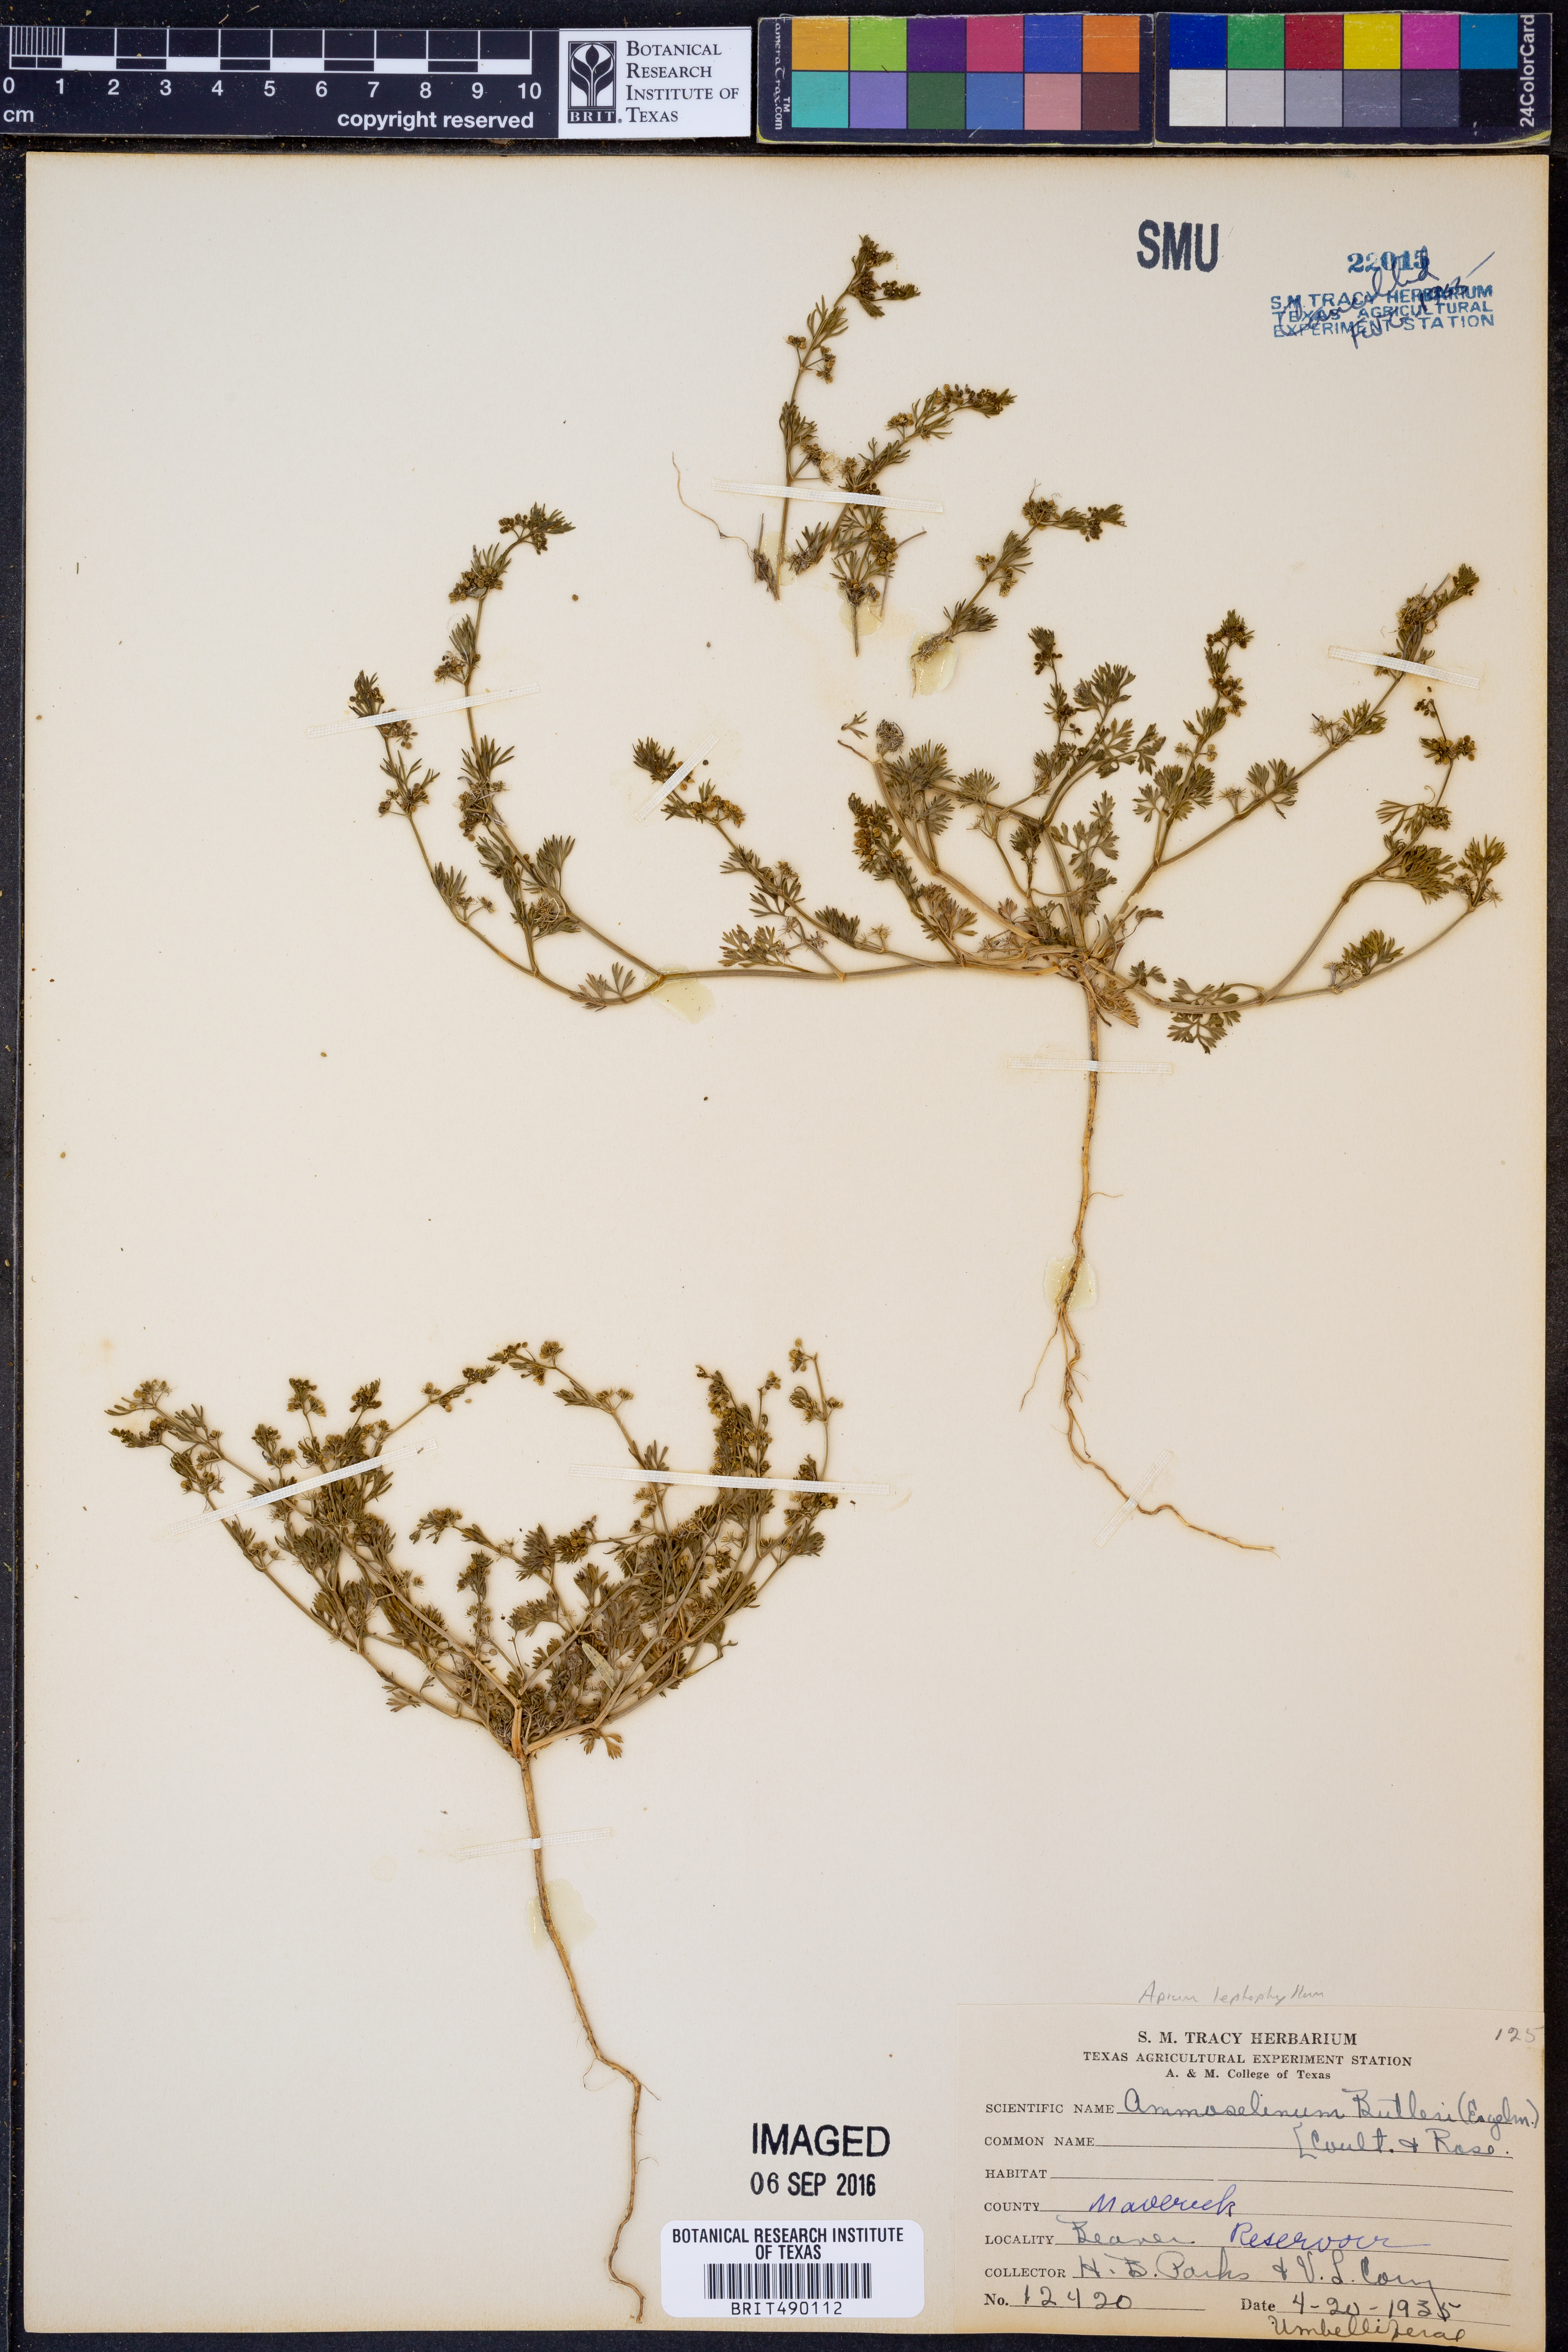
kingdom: Plantae
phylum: Tracheophyta
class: Magnoliopsida
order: Apiales
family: Apiaceae
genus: Cyclospermum
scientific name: Cyclospermum leptophyllum
